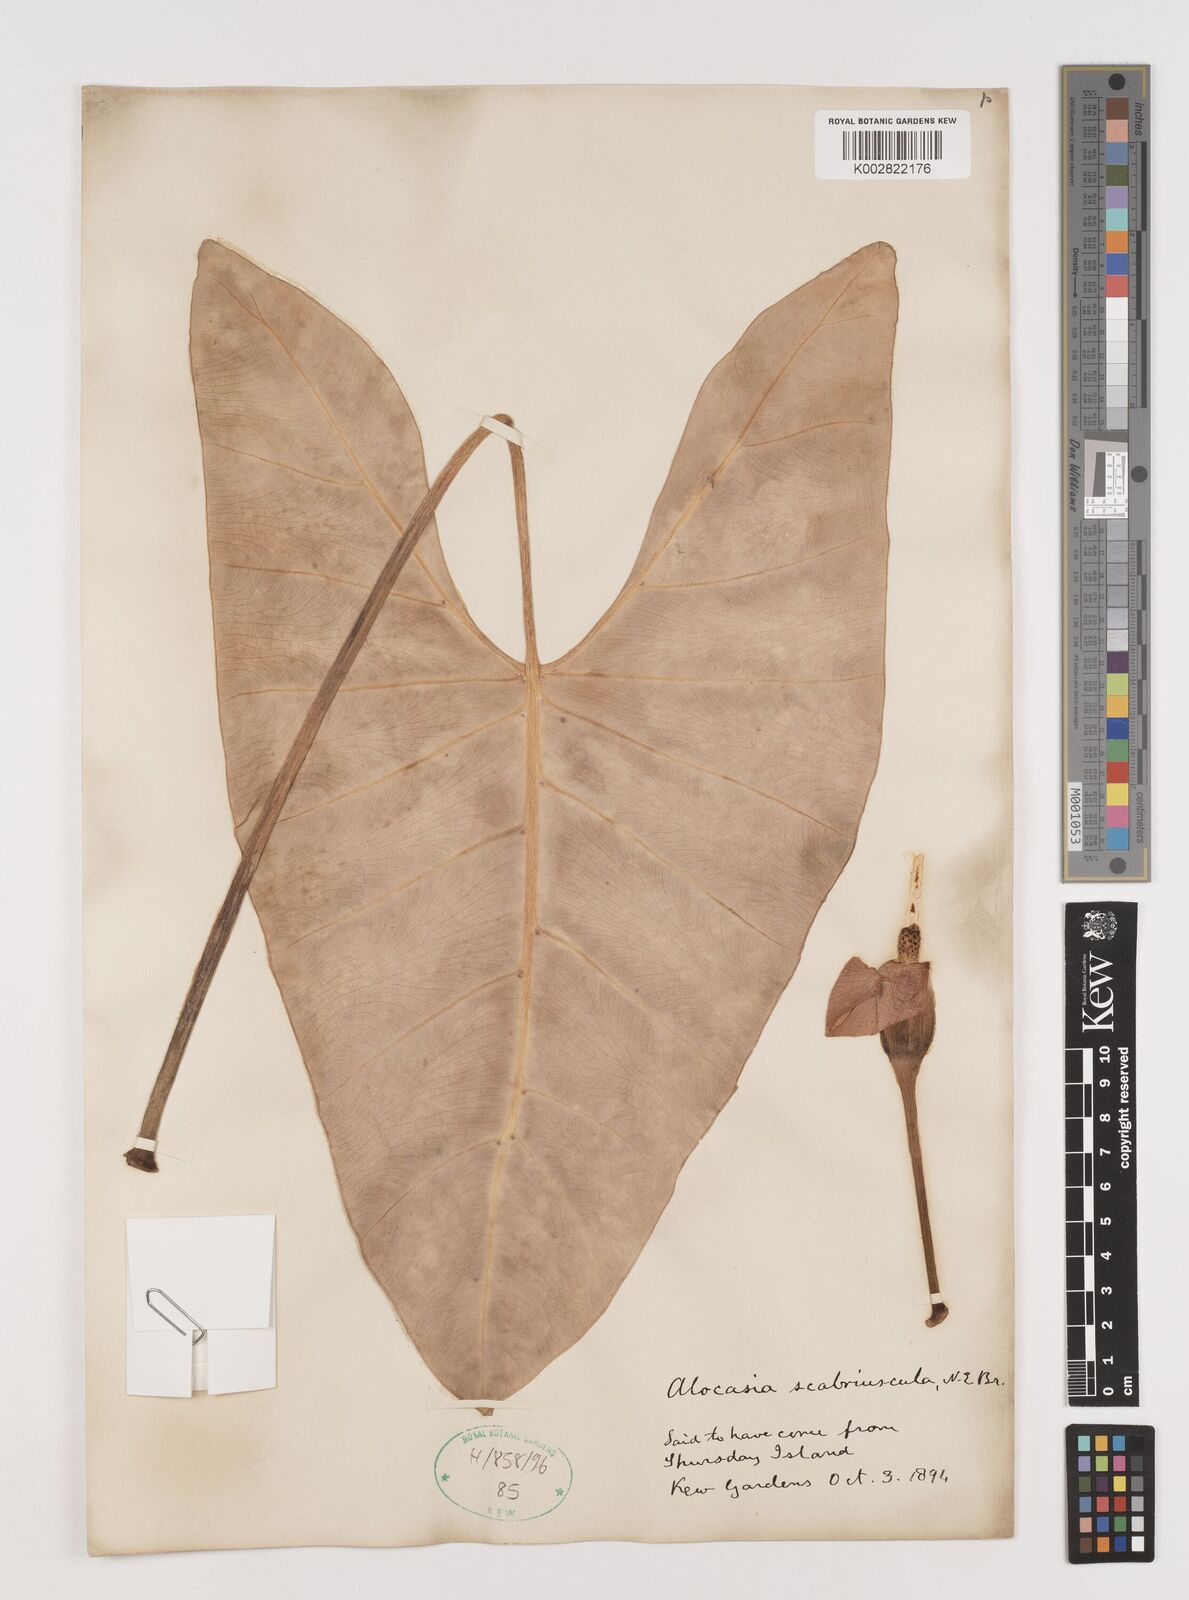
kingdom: Plantae
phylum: Tracheophyta
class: Liliopsida
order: Alismatales
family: Araceae
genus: Alocasia
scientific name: Alocasia scabriuscula
